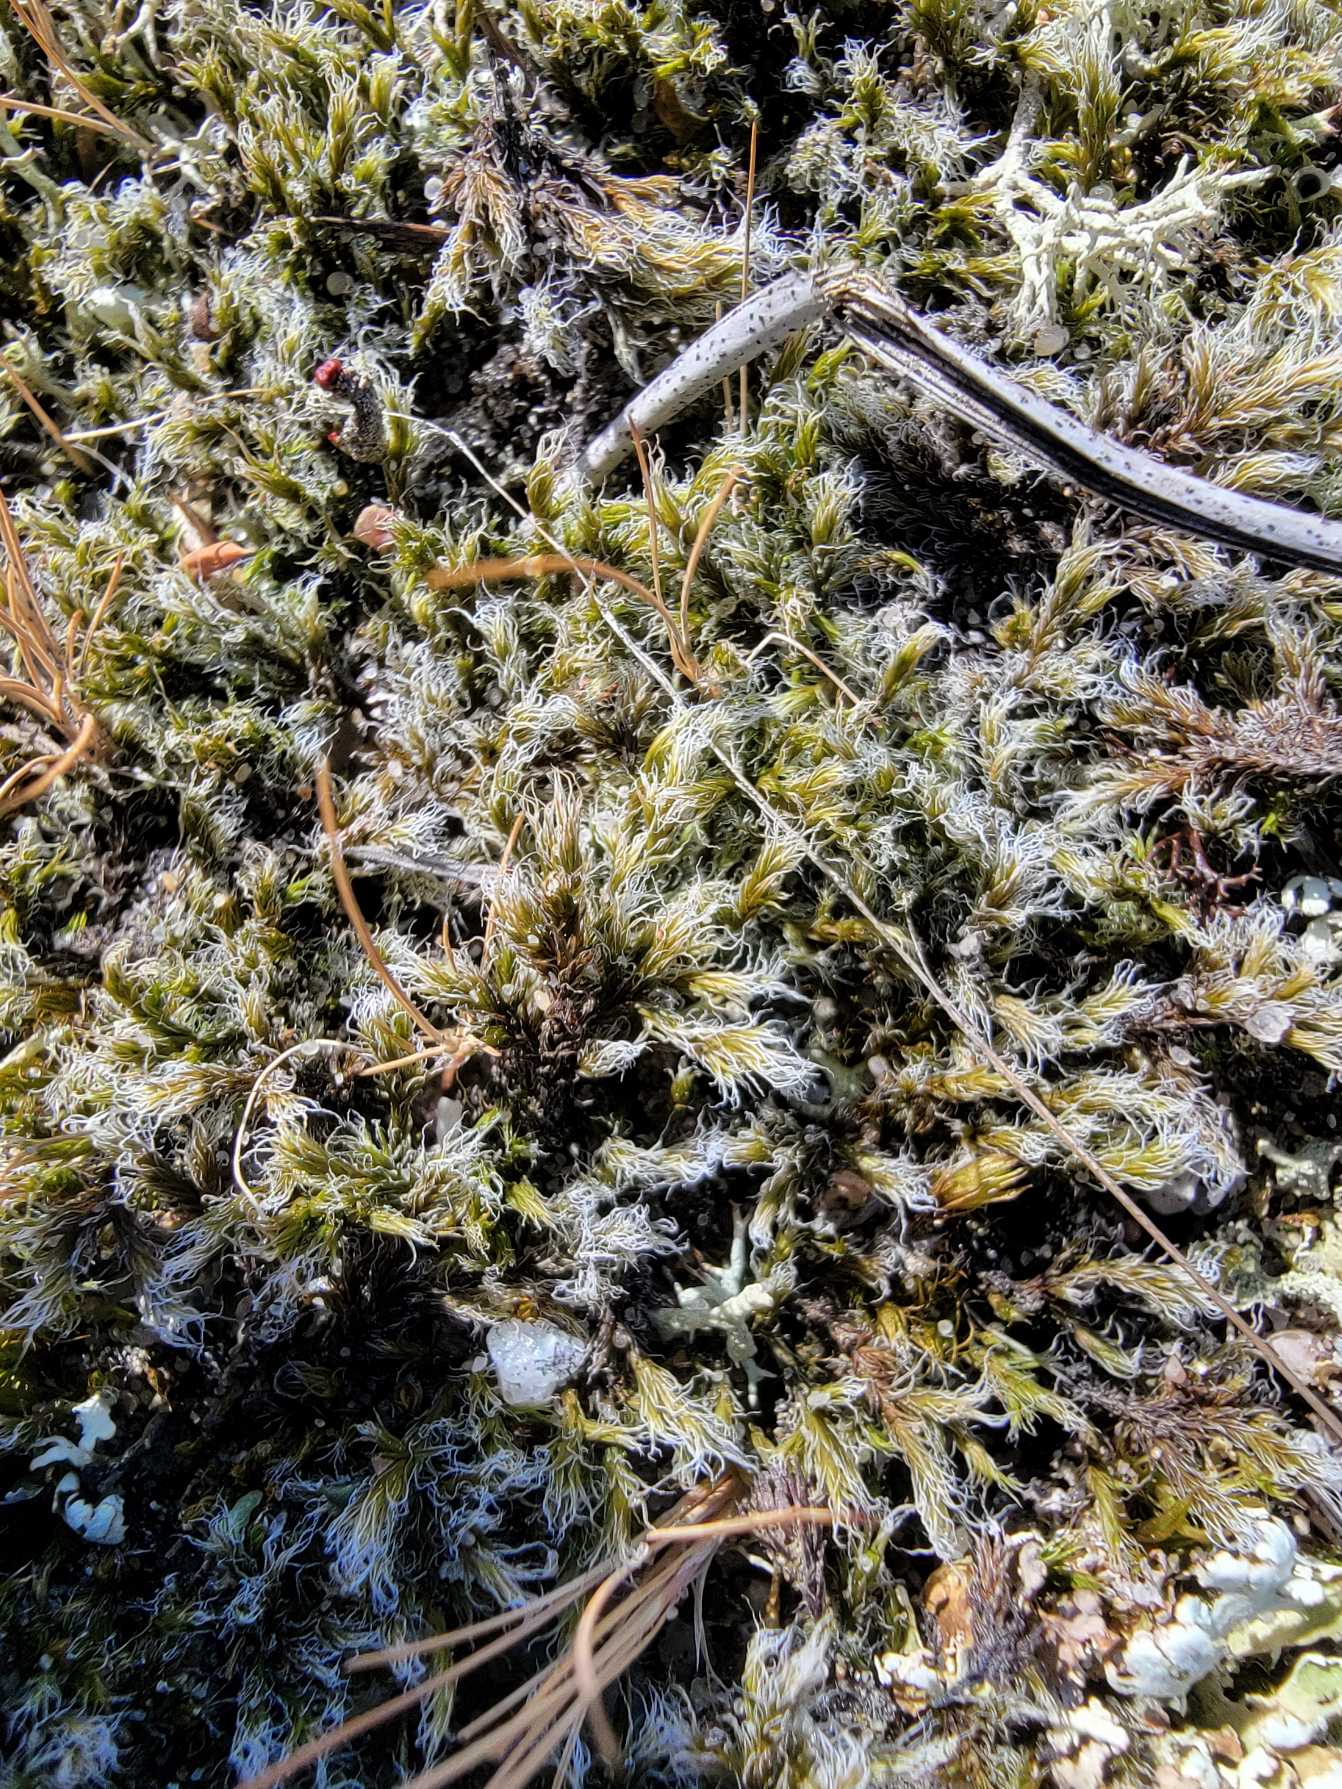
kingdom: Plantae
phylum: Bryophyta
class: Bryopsida
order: Grimmiales
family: Grimmiaceae
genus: Racomitrium
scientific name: Racomitrium lanuginosum
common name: Stor børstemos
